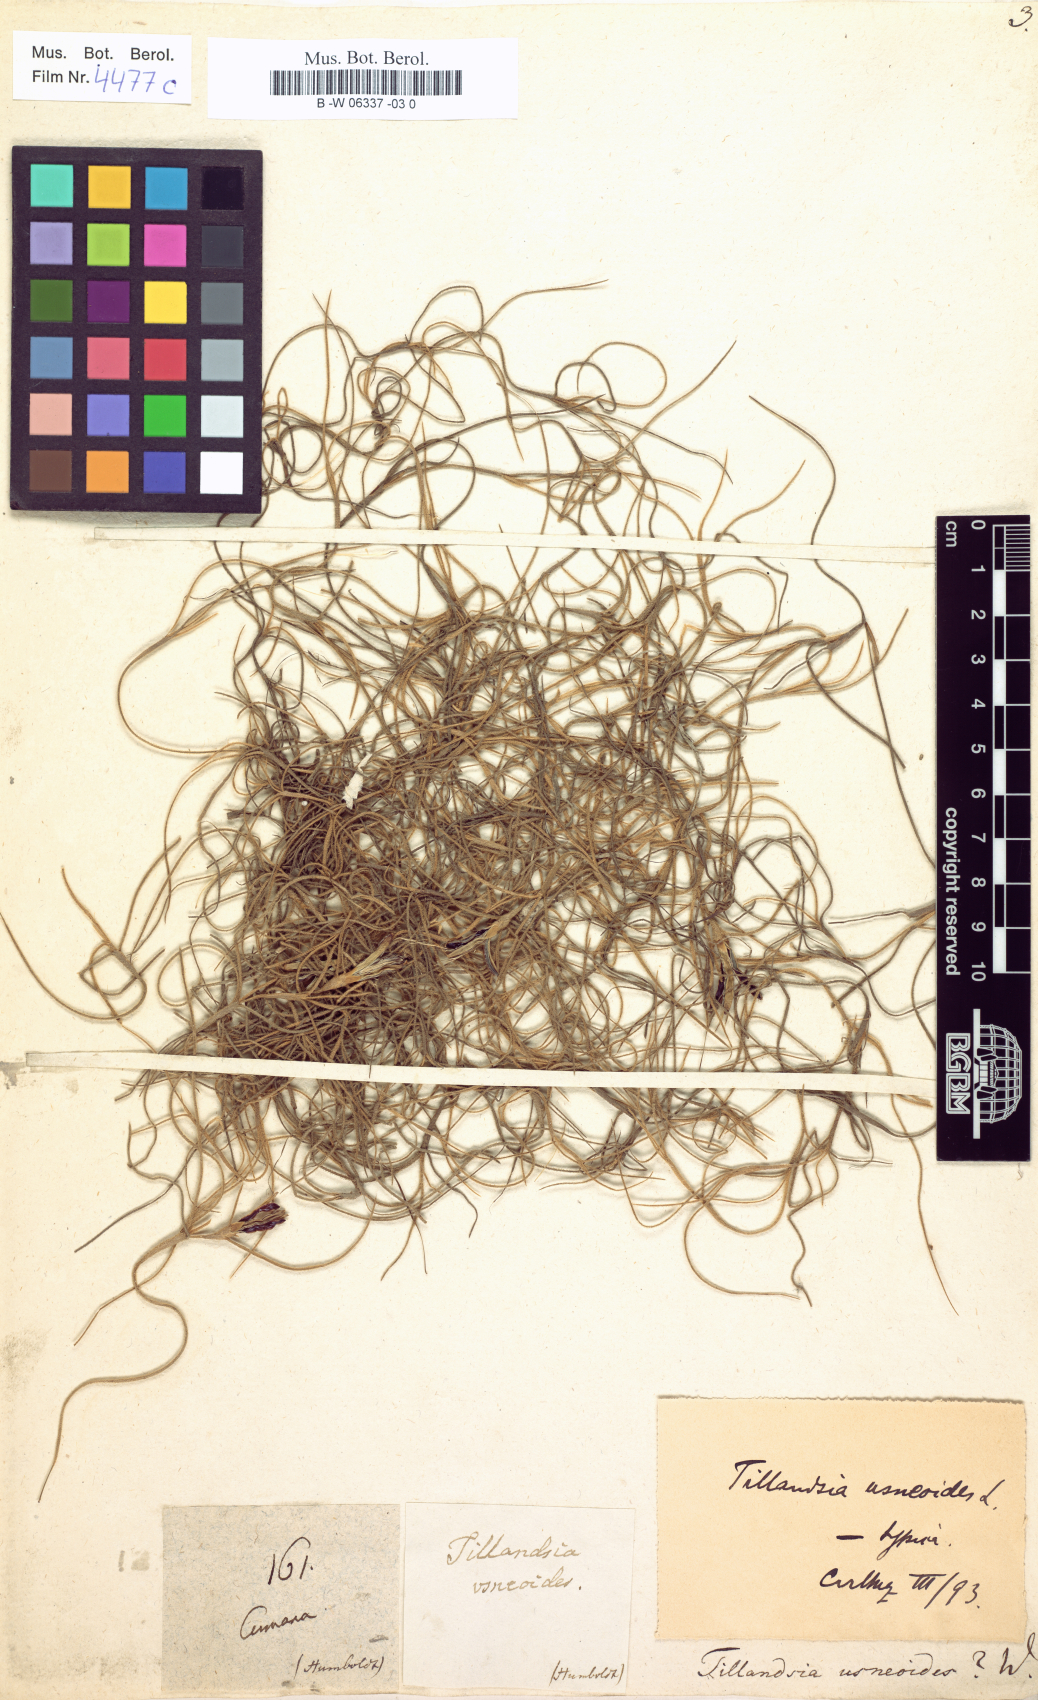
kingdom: Plantae
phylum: Tracheophyta
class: Liliopsida
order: Poales
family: Bromeliaceae
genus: Tillandsia
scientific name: Tillandsia usneoides
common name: Spanish moss
